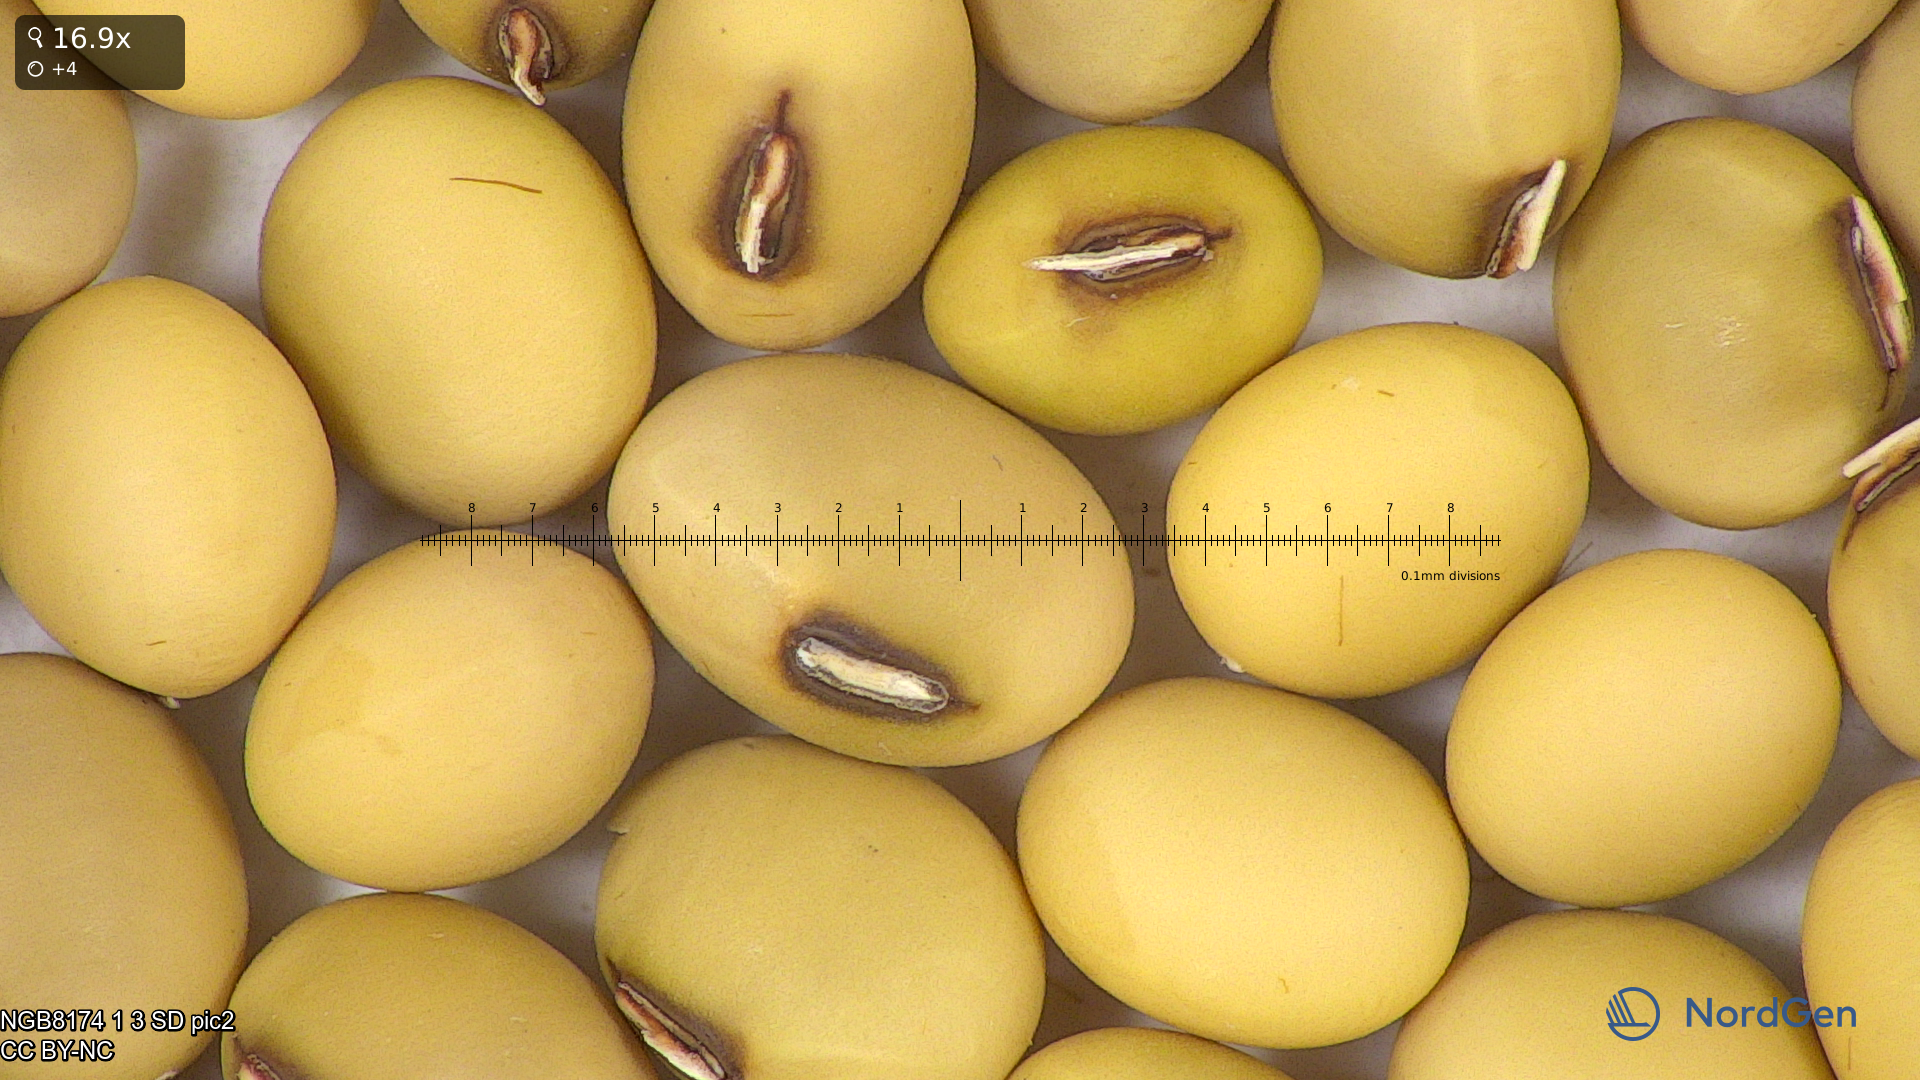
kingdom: Plantae
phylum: Tracheophyta
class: Magnoliopsida
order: Fabales
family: Fabaceae
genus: Glycine
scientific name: Glycine max
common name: Soya-bean
